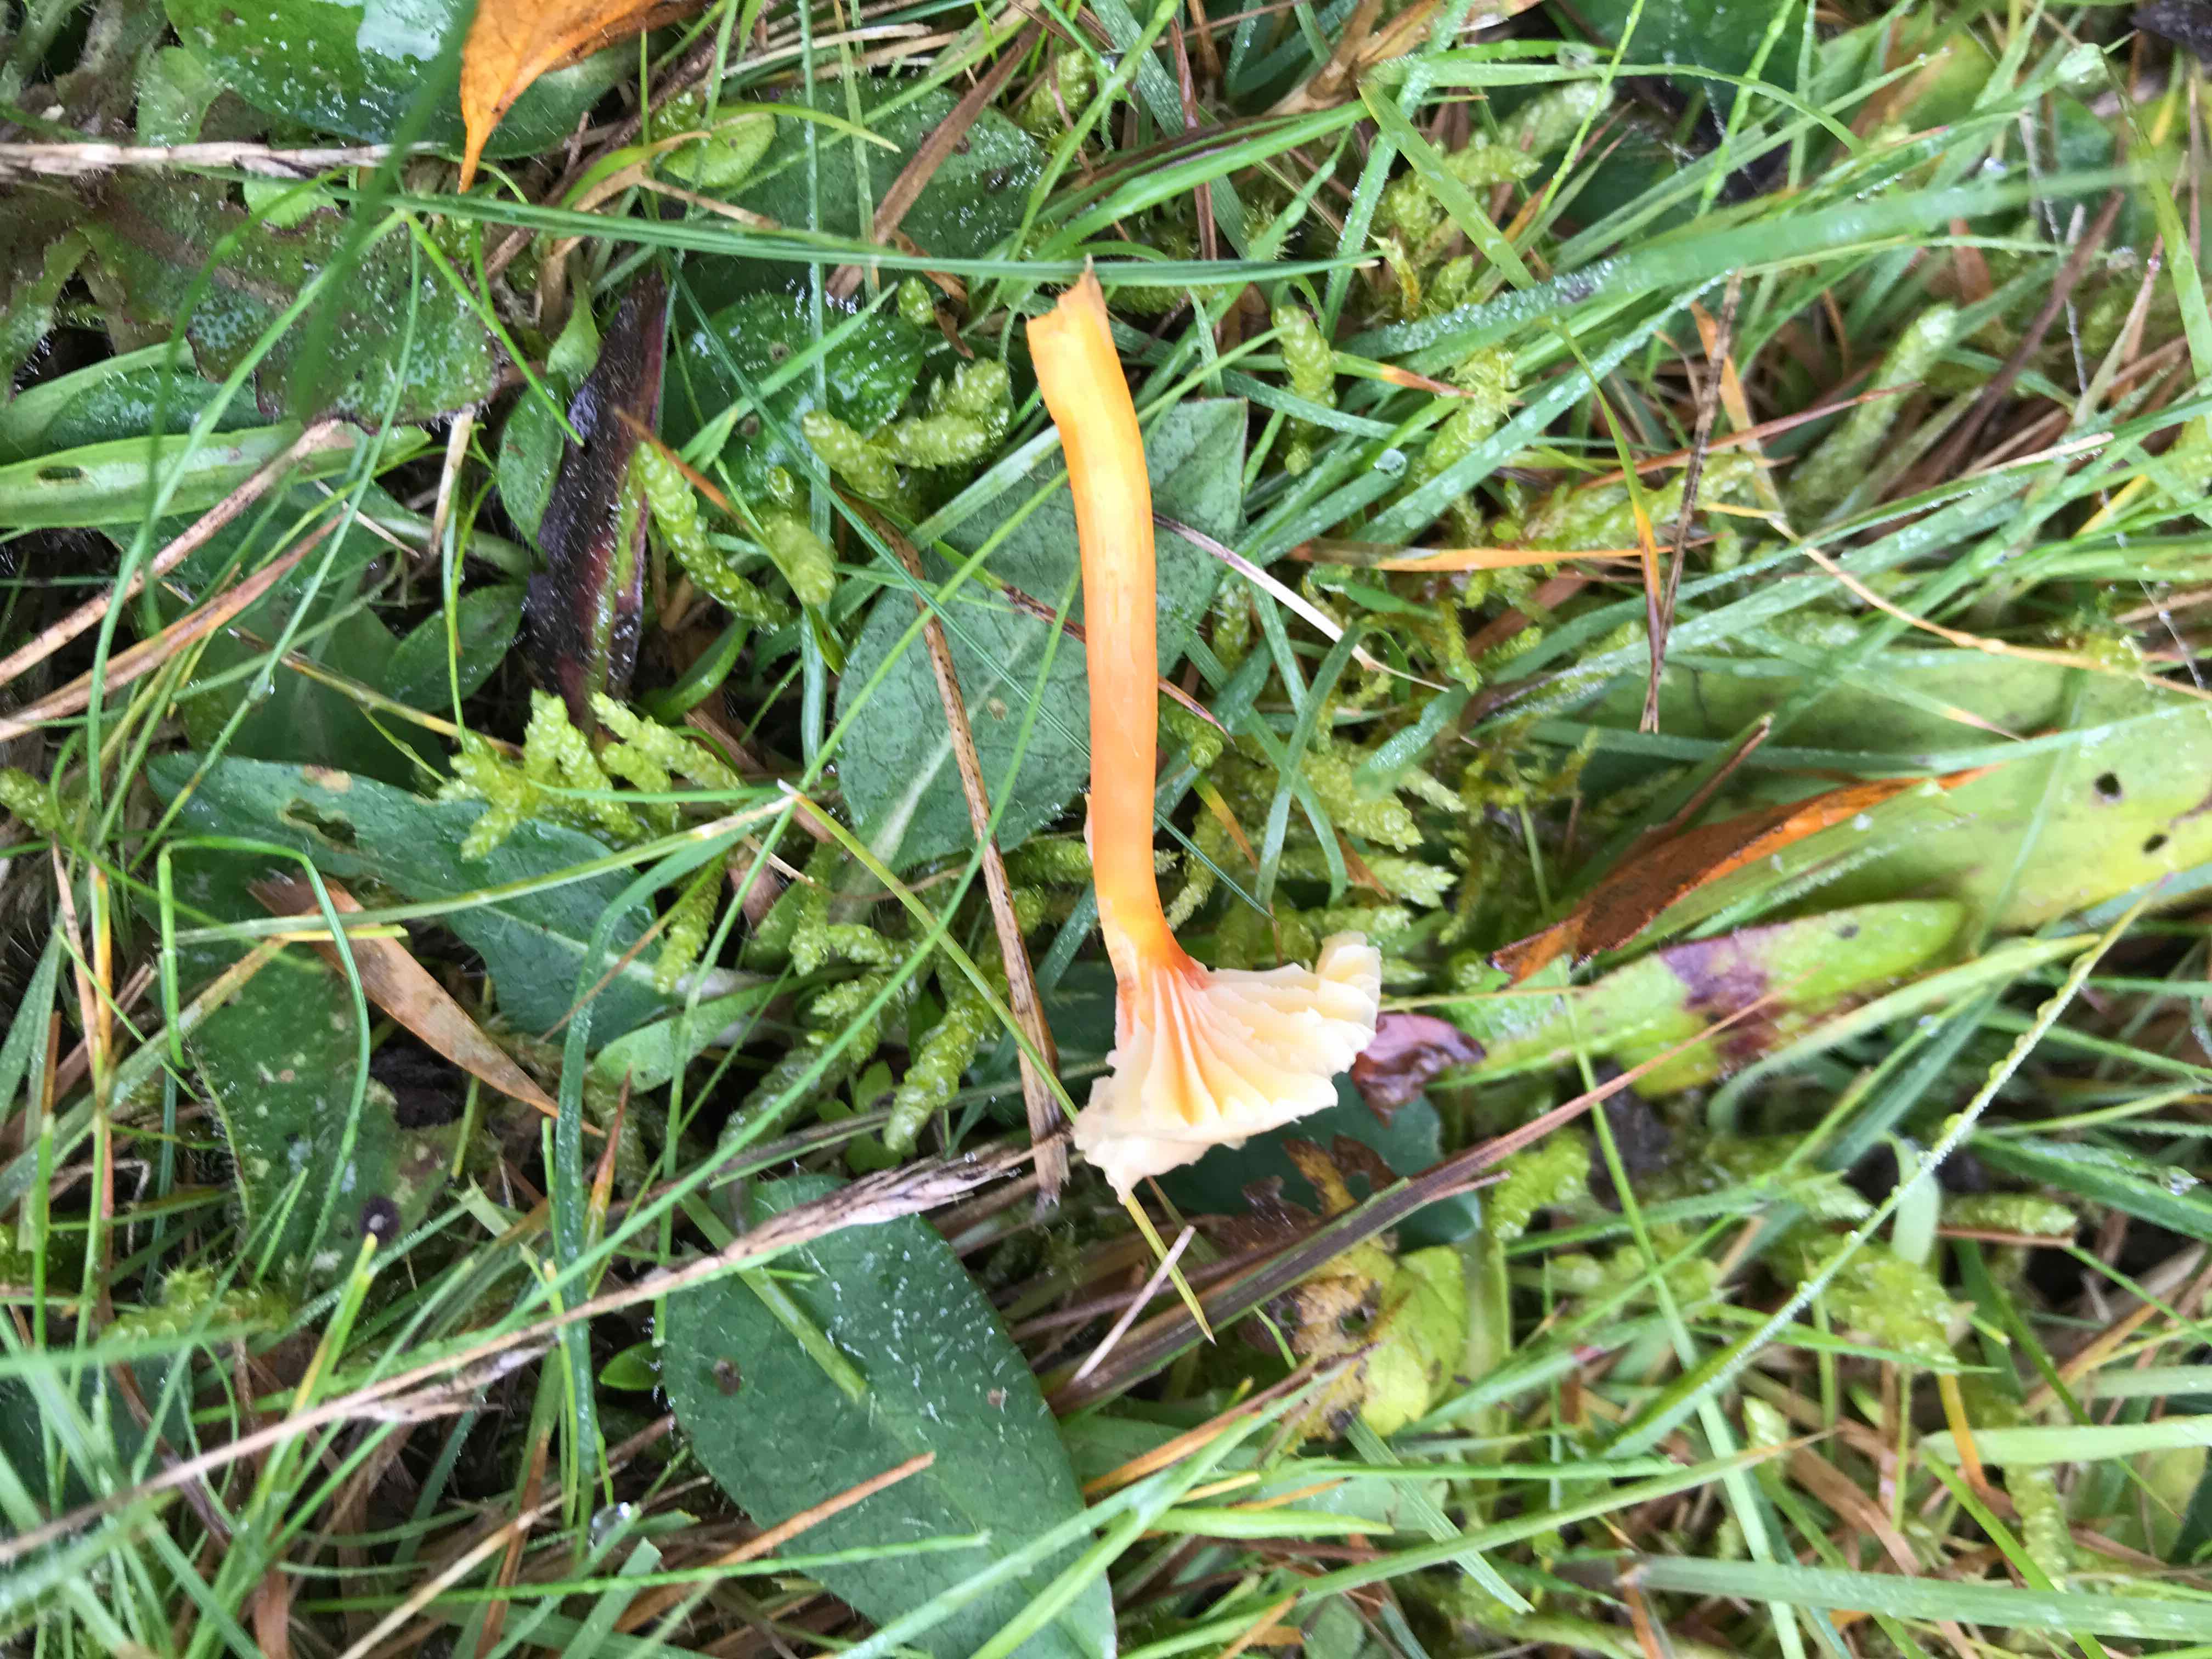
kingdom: Fungi
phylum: Basidiomycota
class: Agaricomycetes
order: Agaricales
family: Hygrophoraceae
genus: Hygrocybe
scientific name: Hygrocybe cantharellus
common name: kantarel-vokshat
